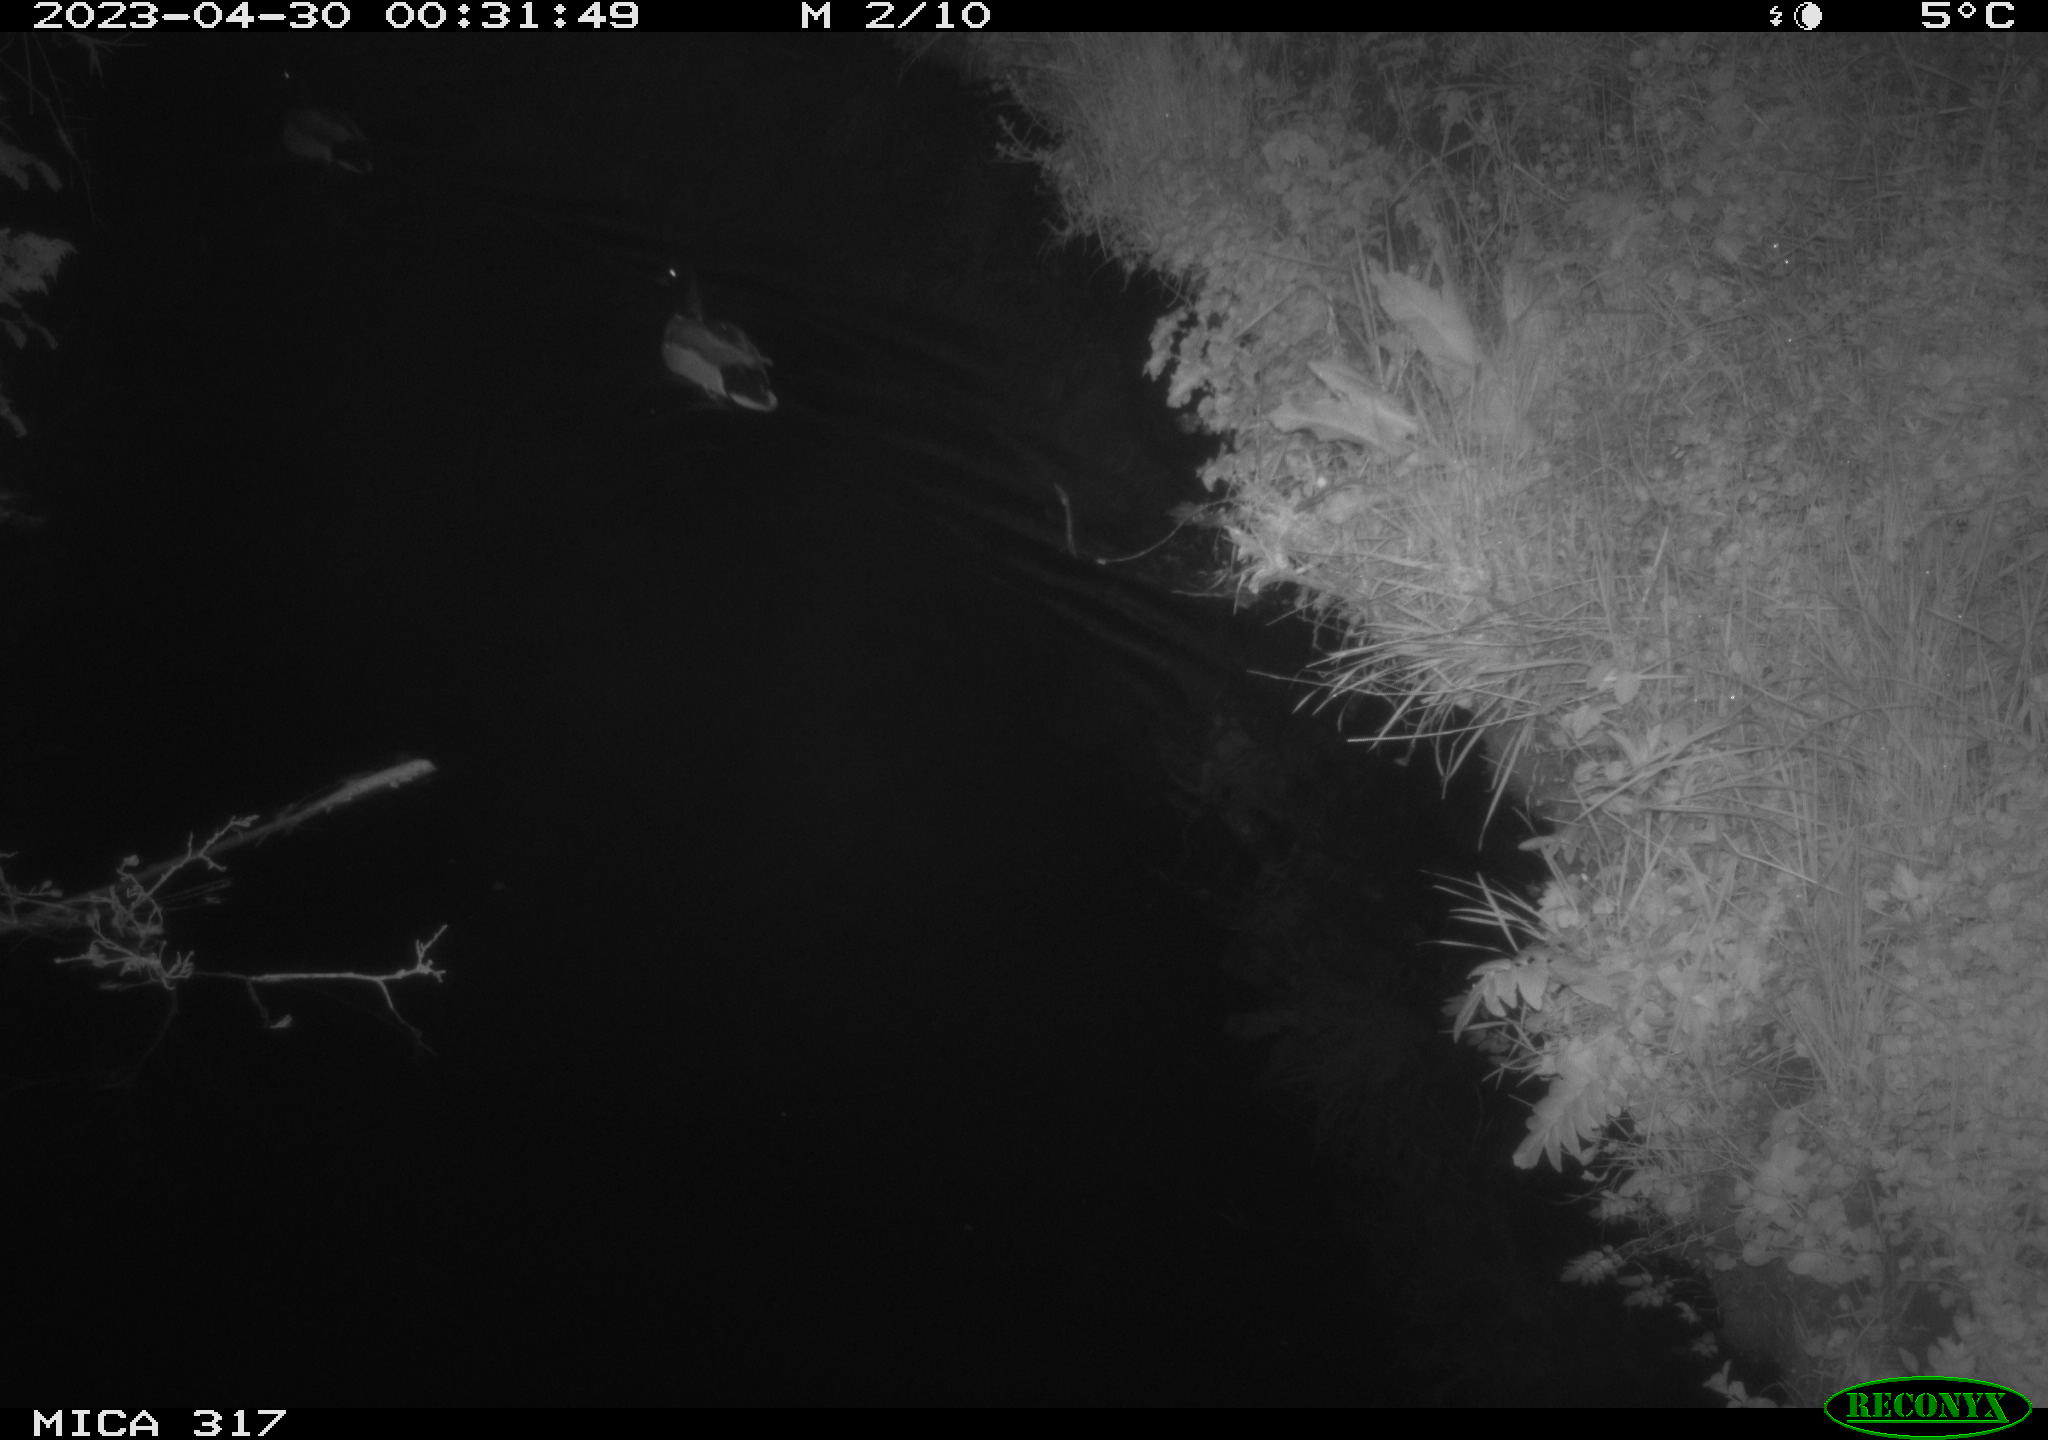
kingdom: Animalia
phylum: Chordata
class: Aves
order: Anseriformes
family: Anatidae
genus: Anas
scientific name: Anas
